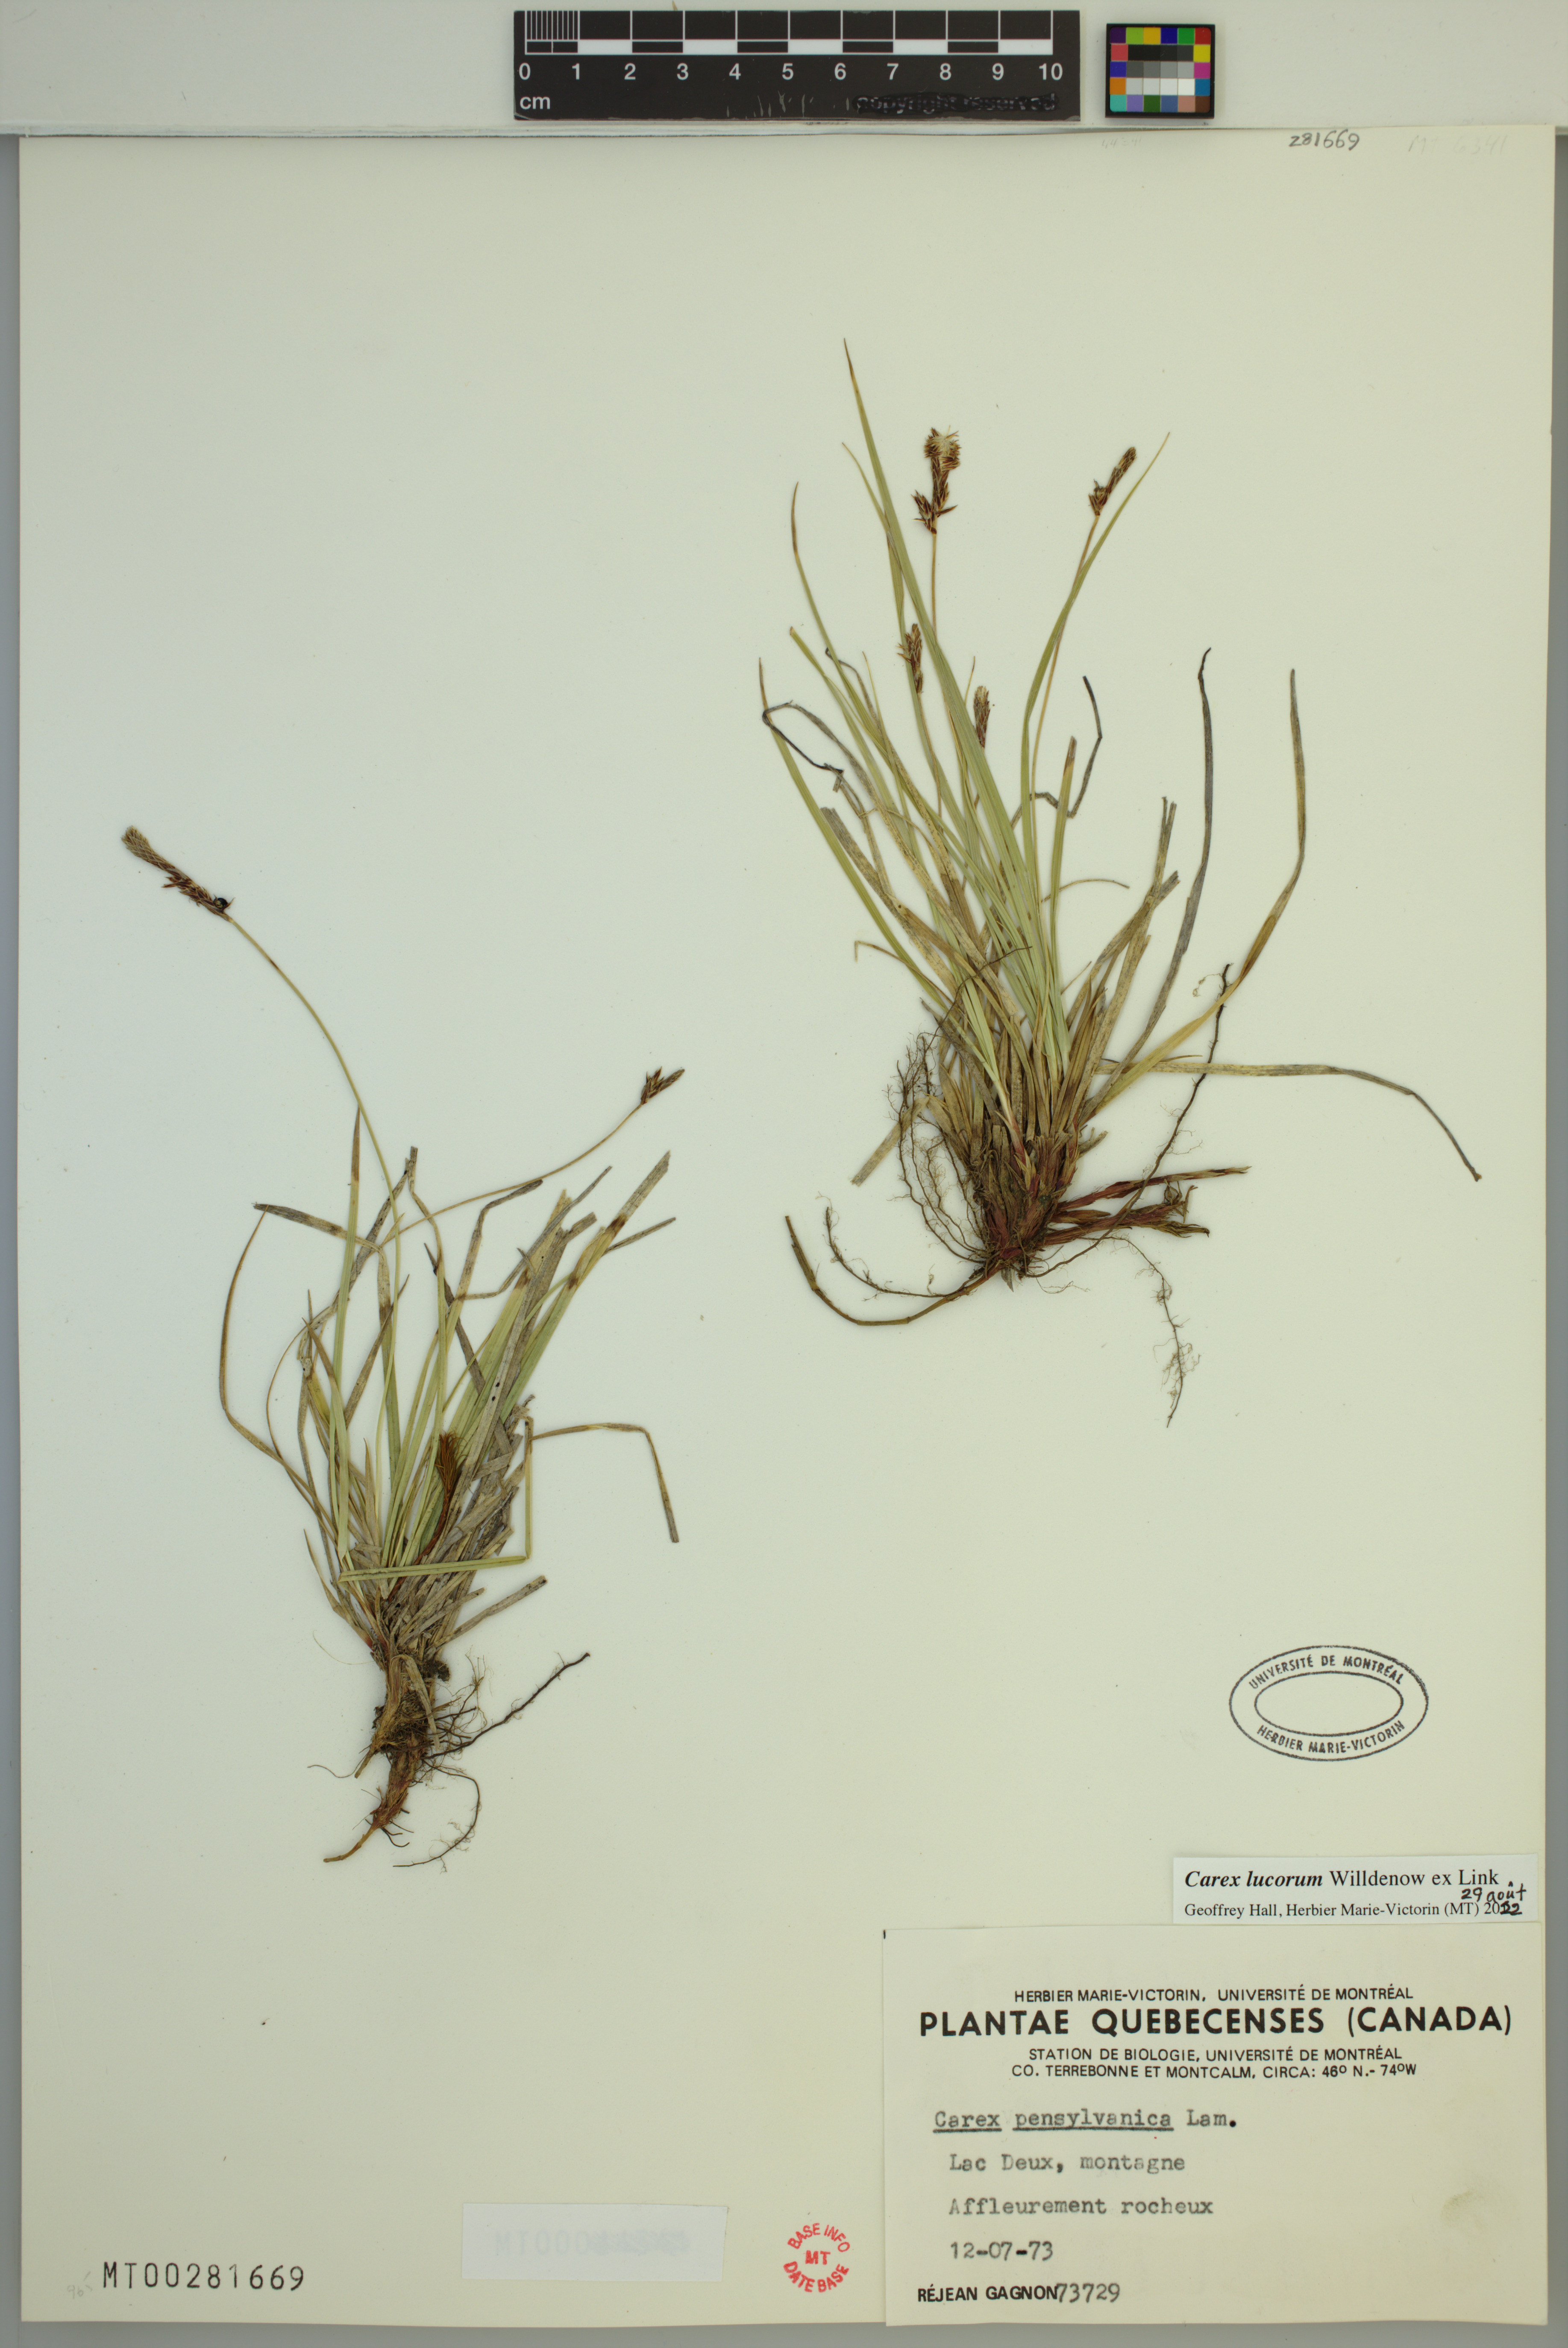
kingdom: Plantae
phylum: Tracheophyta
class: Liliopsida
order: Poales
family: Cyperaceae
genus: Carex
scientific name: Carex lucorum
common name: Blue ridge sedge
